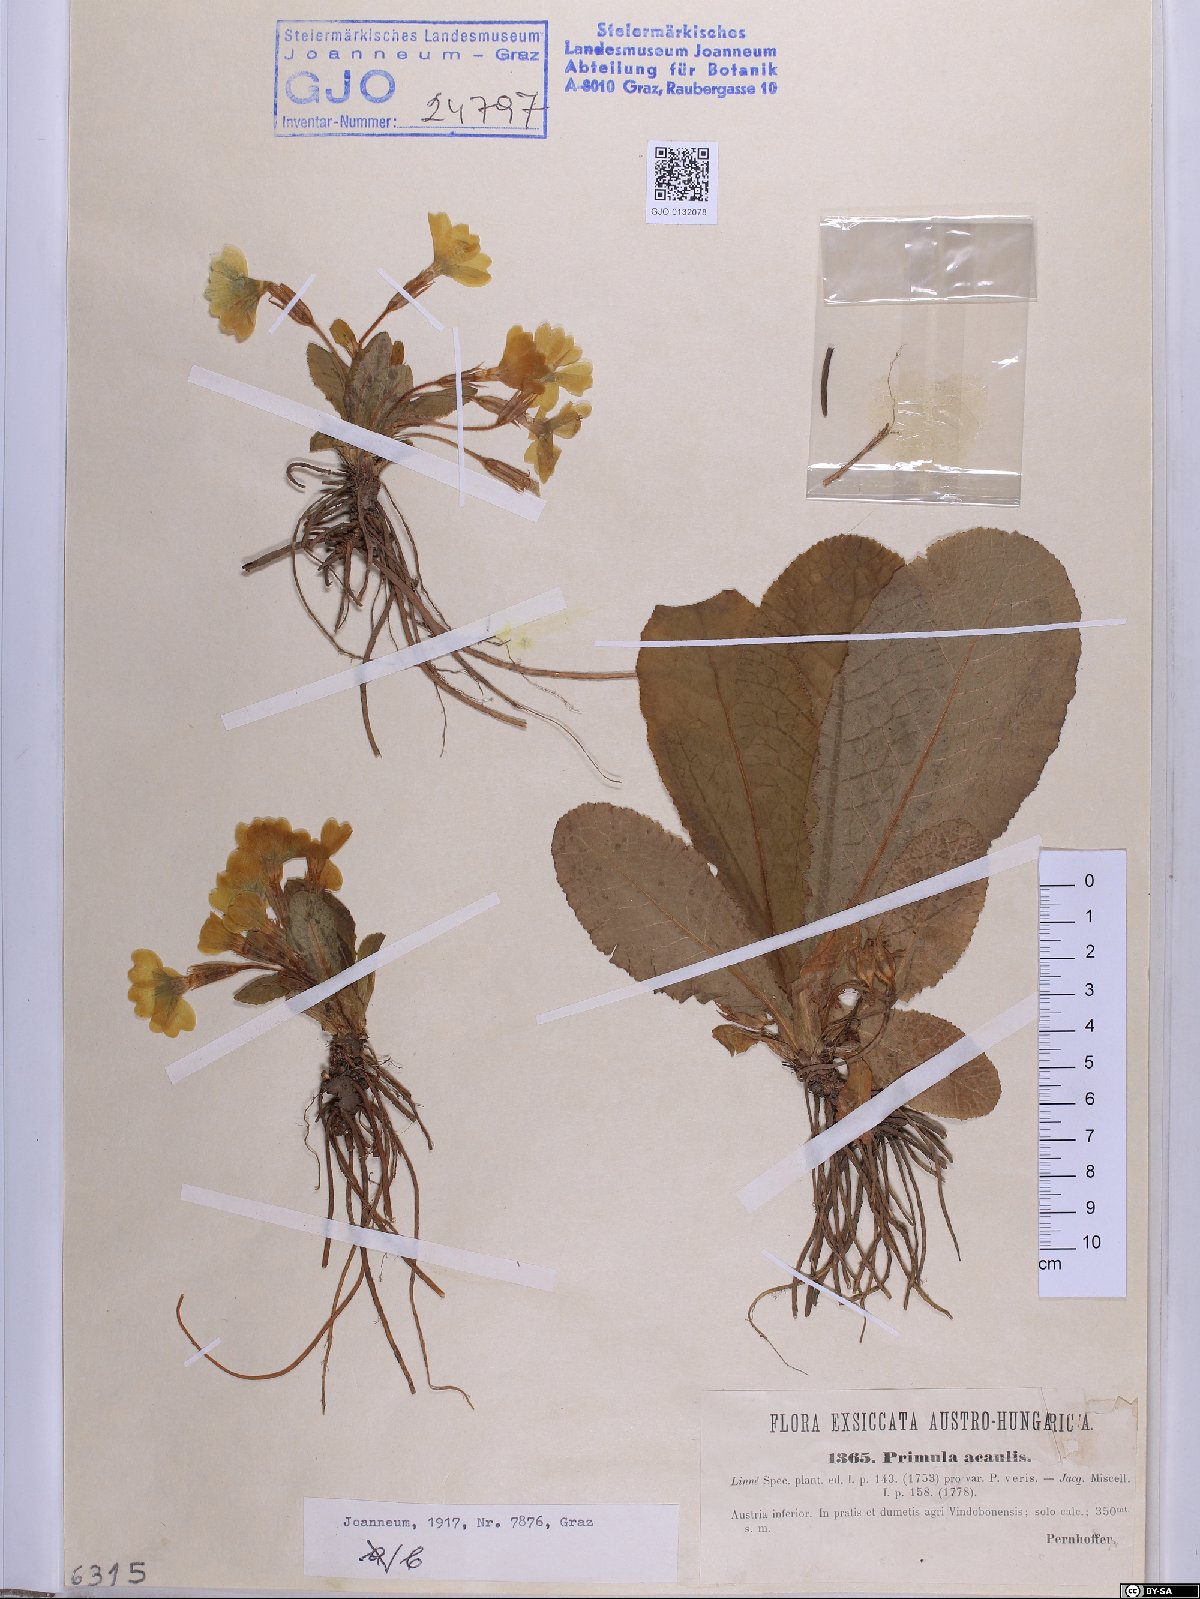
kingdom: Plantae
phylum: Tracheophyta
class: Magnoliopsida
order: Ericales
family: Primulaceae
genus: Primula
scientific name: Primula vulgaris
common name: Primrose
